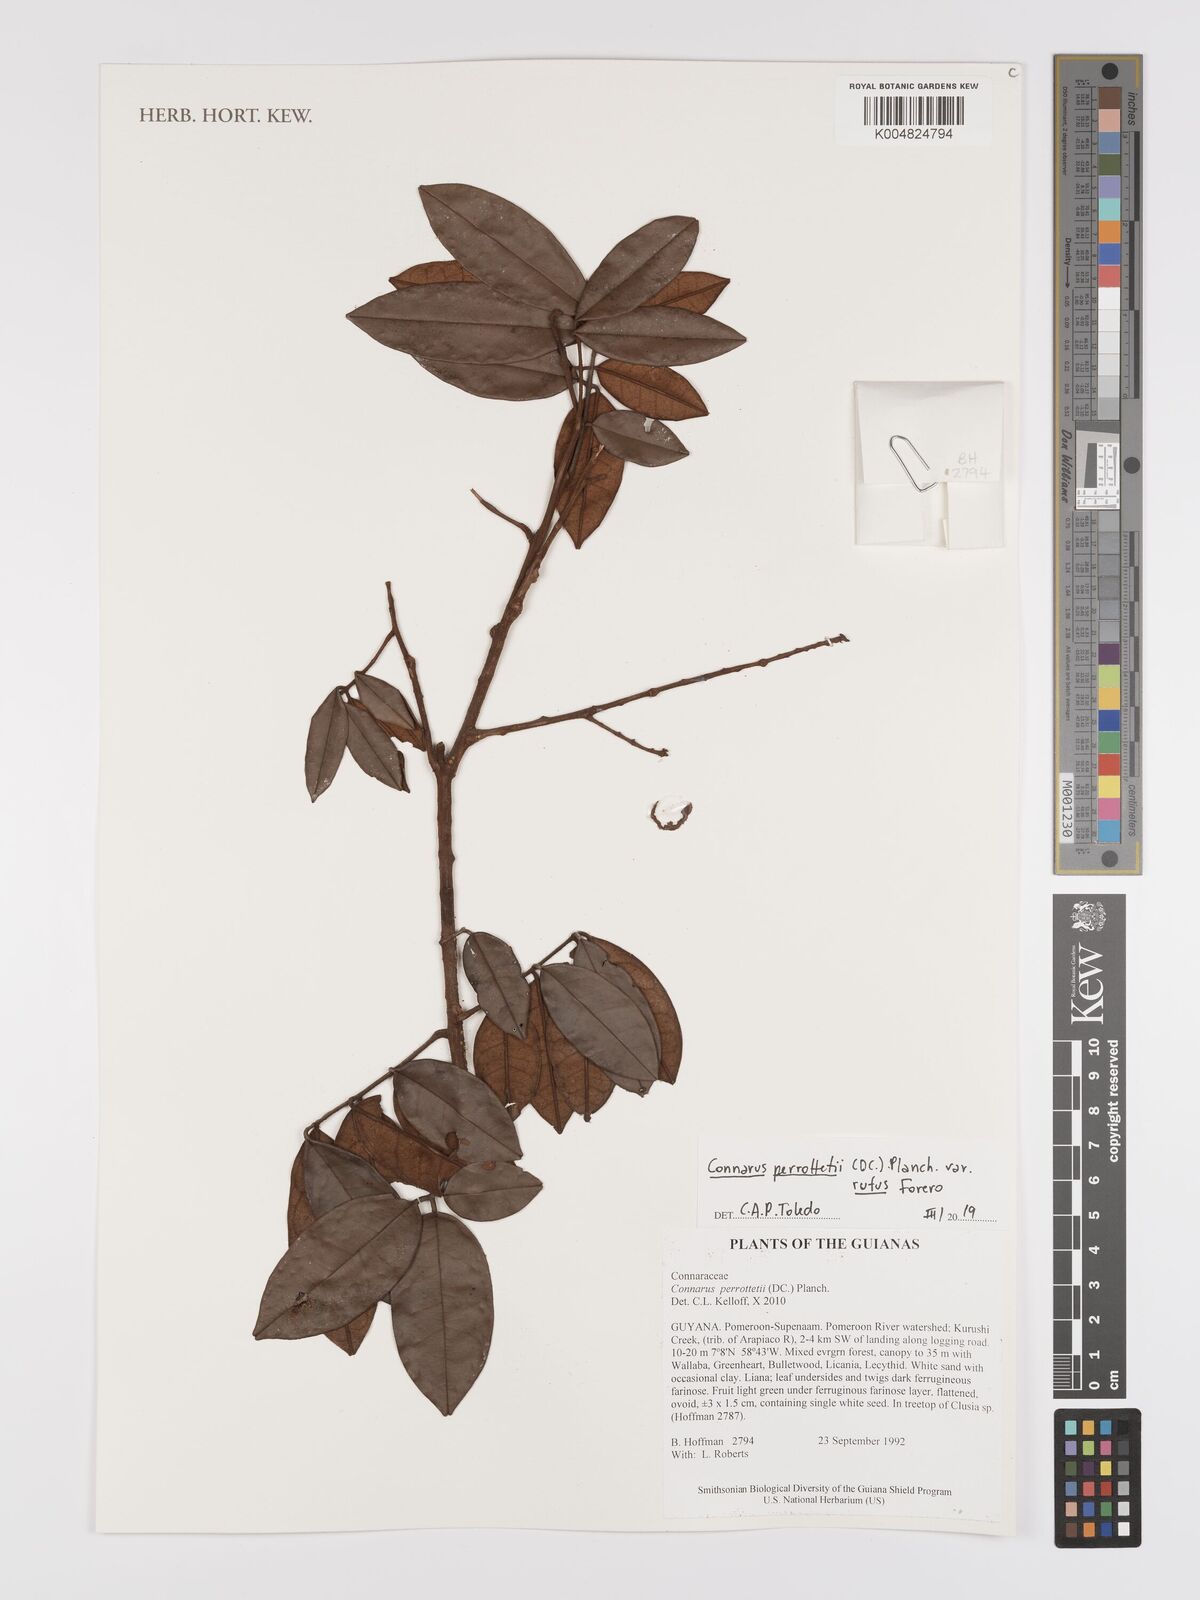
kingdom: Plantae
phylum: Tracheophyta
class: Magnoliopsida
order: Oxalidales
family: Connaraceae
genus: Connarus
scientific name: Connarus perrottetii
